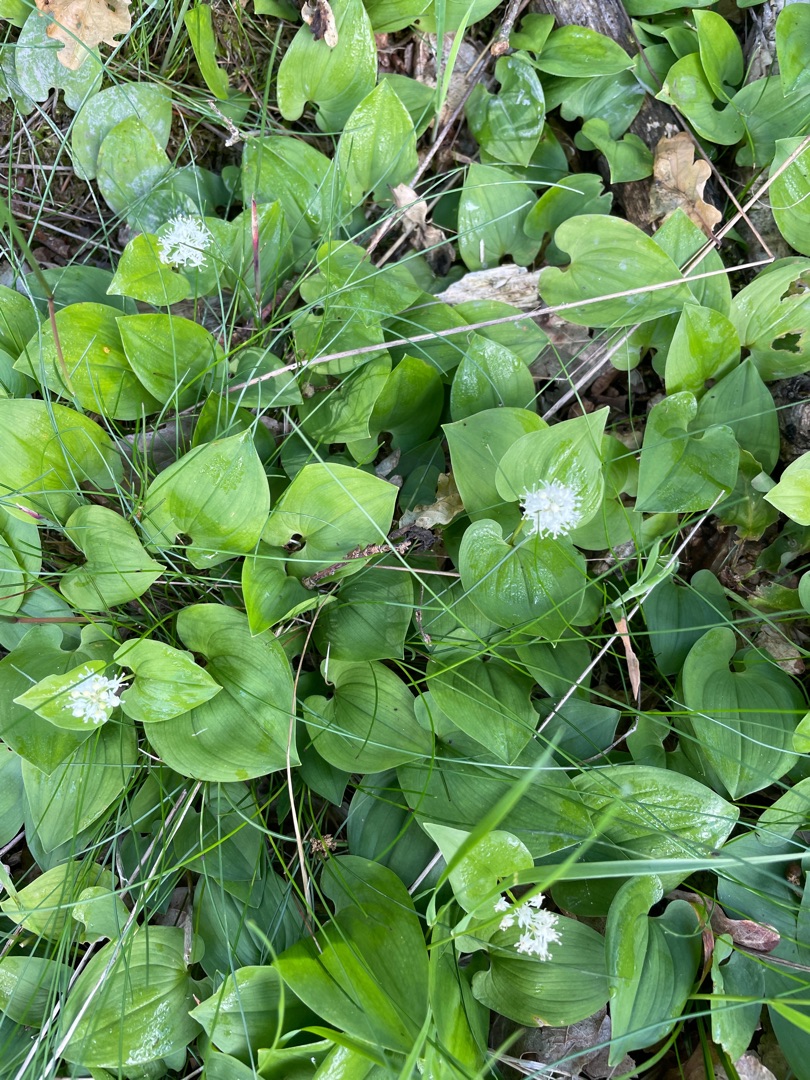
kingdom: Plantae
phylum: Tracheophyta
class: Liliopsida
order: Asparagales
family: Asparagaceae
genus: Maianthemum
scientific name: Maianthemum bifolium
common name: Majblomst
